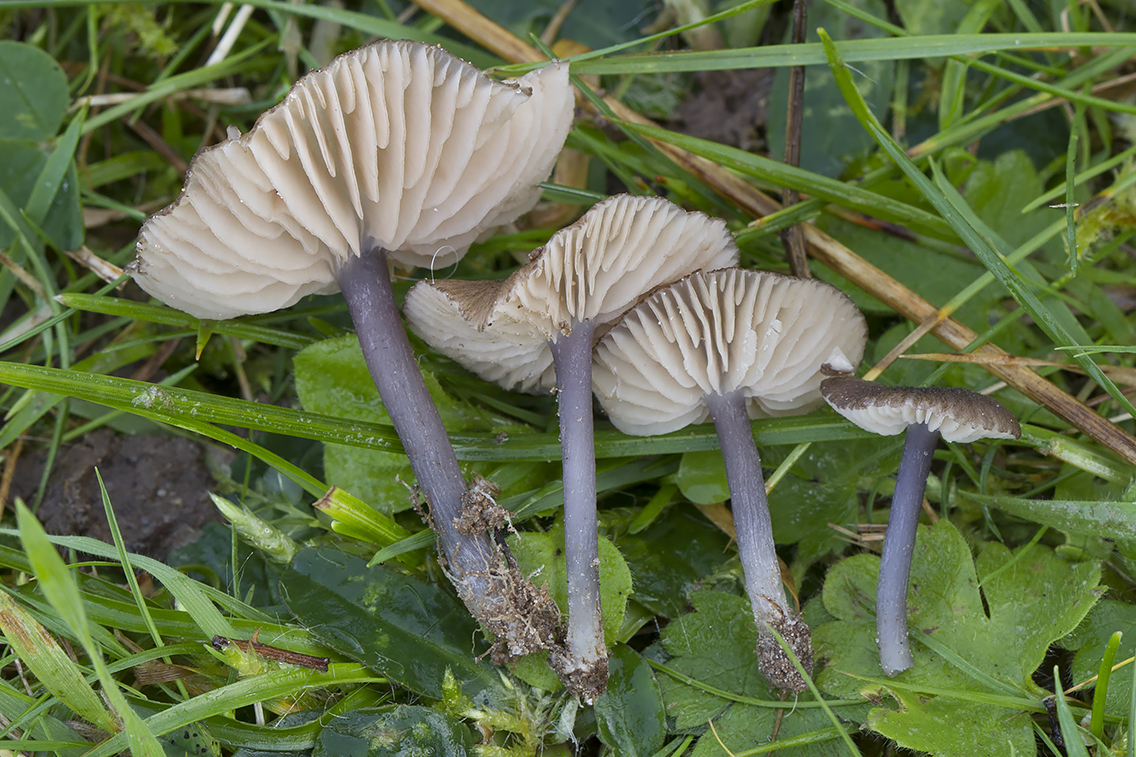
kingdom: Fungi
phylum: Basidiomycota
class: Agaricomycetes
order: Agaricales
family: Entolomataceae
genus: Entoloma
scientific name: Entoloma isborscanum
